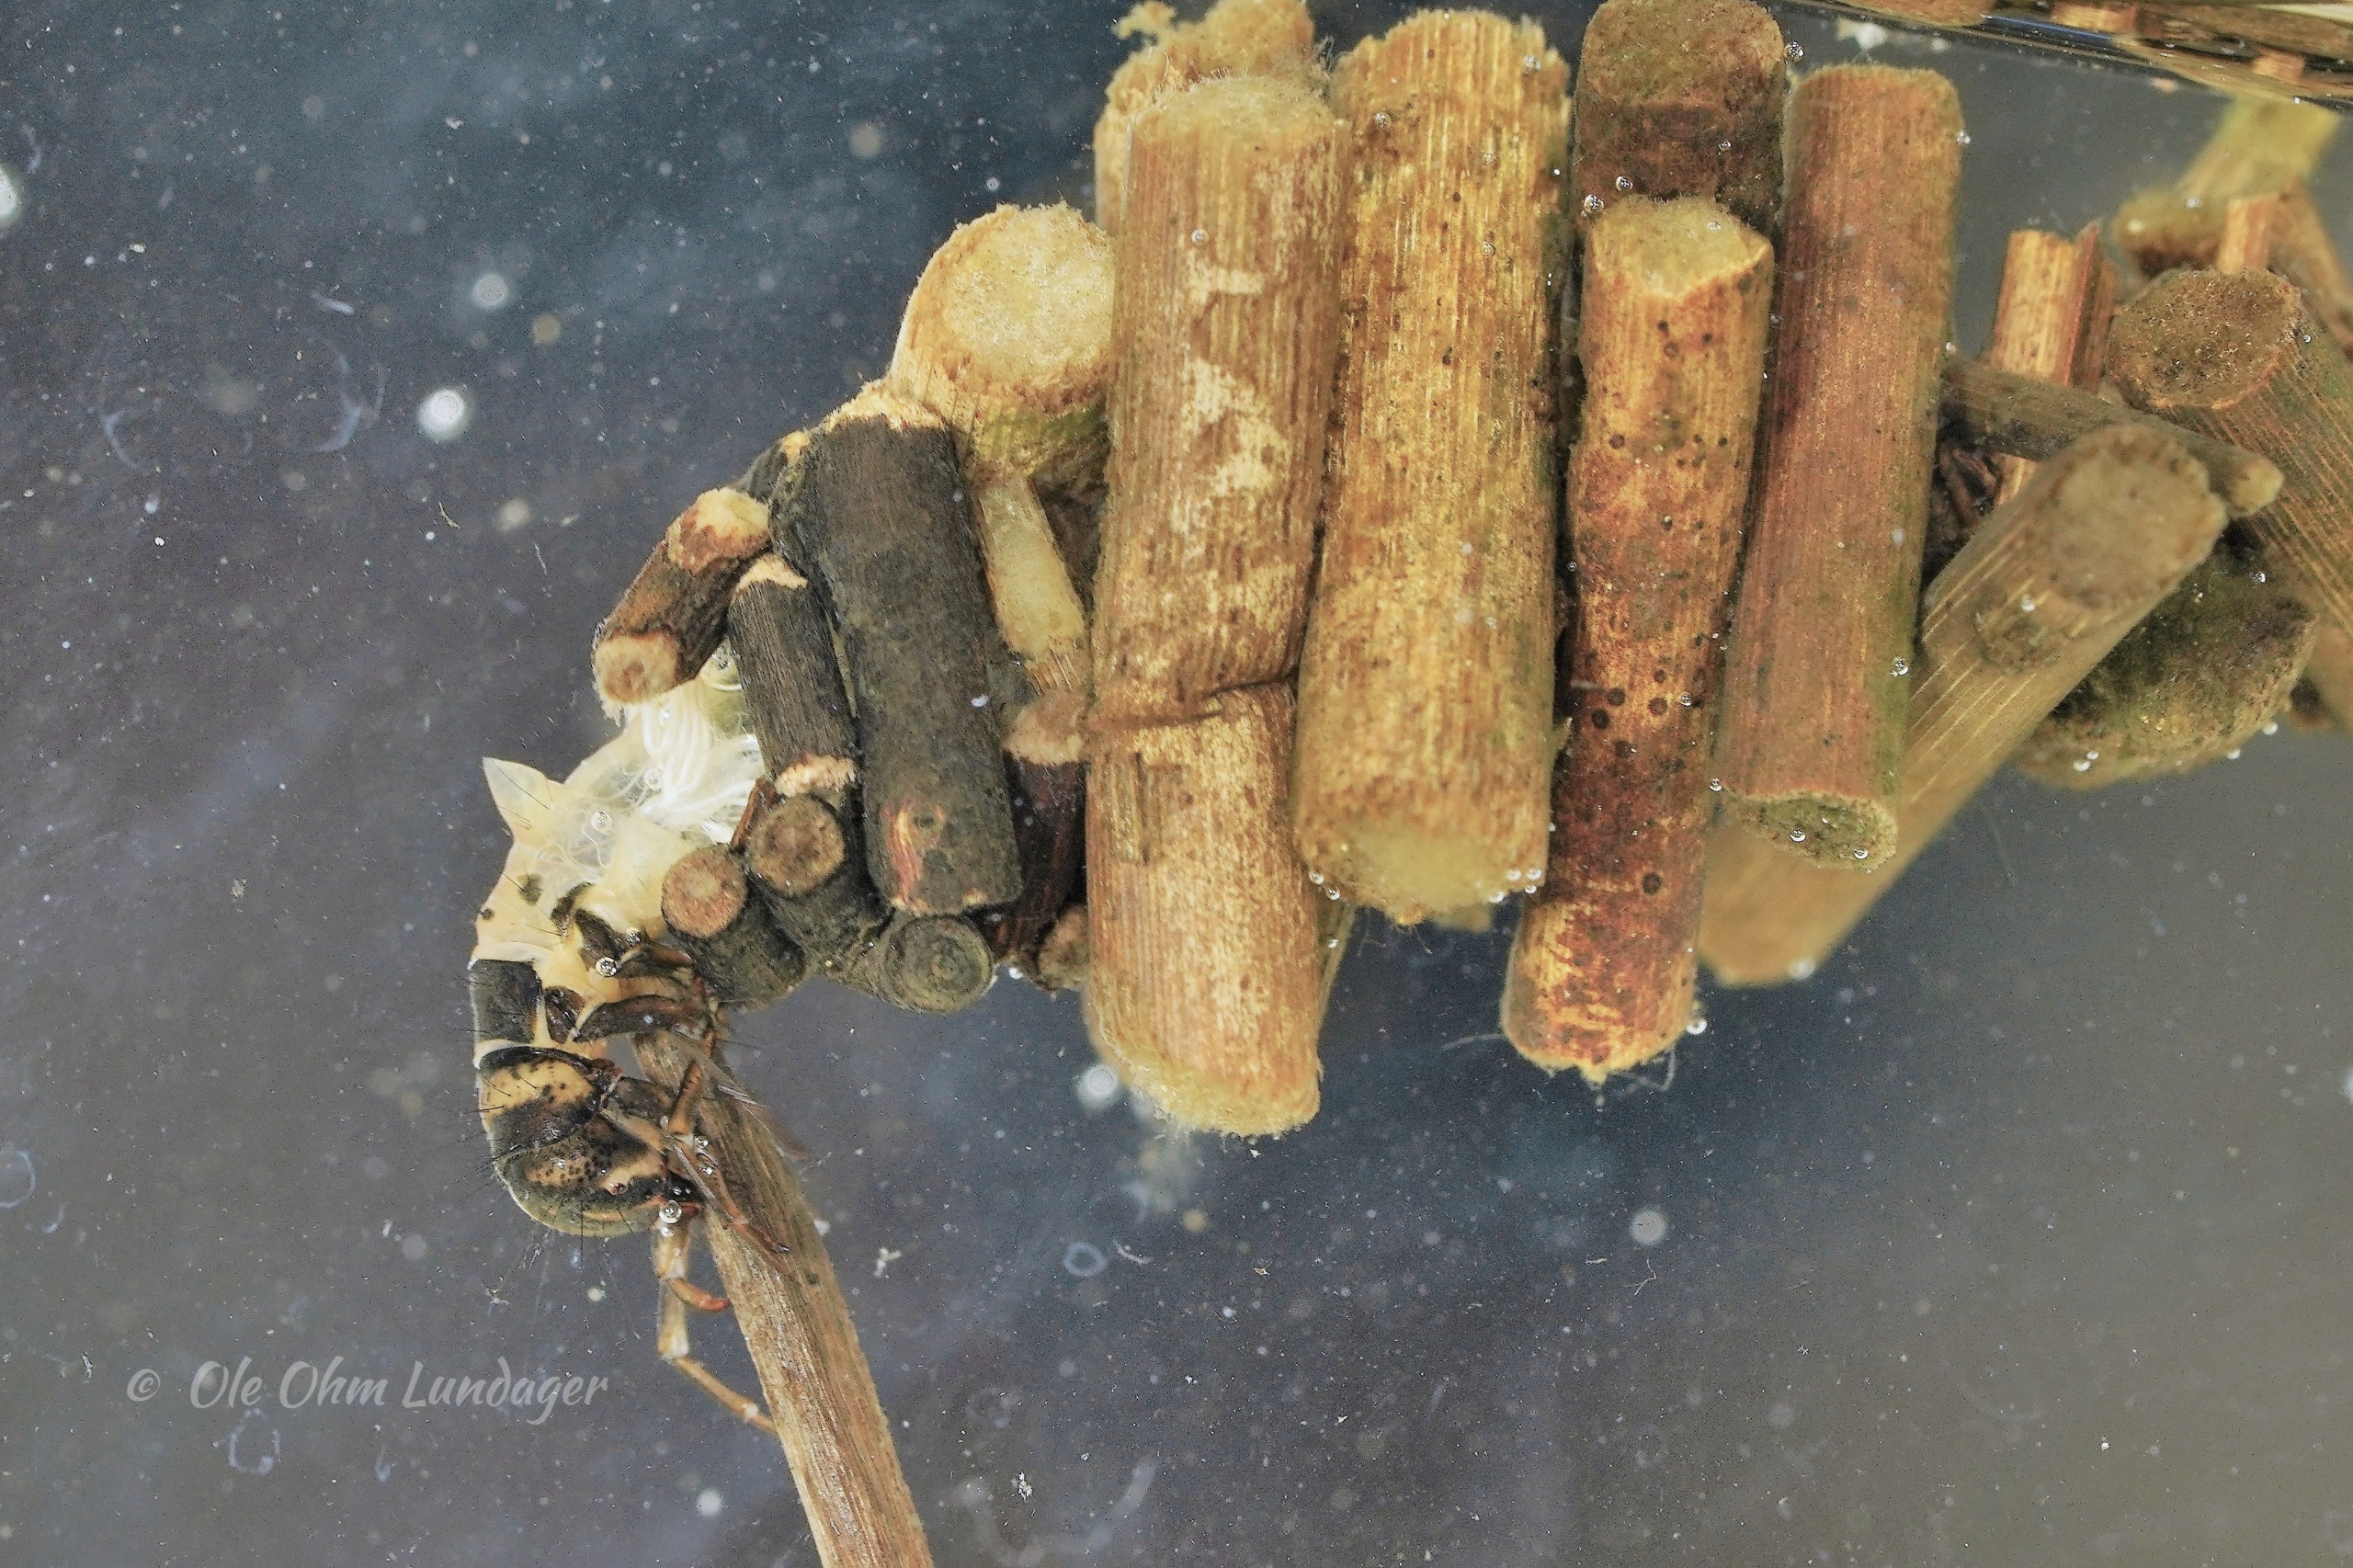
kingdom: Animalia
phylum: Arthropoda
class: Insecta
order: Trichoptera
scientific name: Trichoptera
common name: Vårfluer
